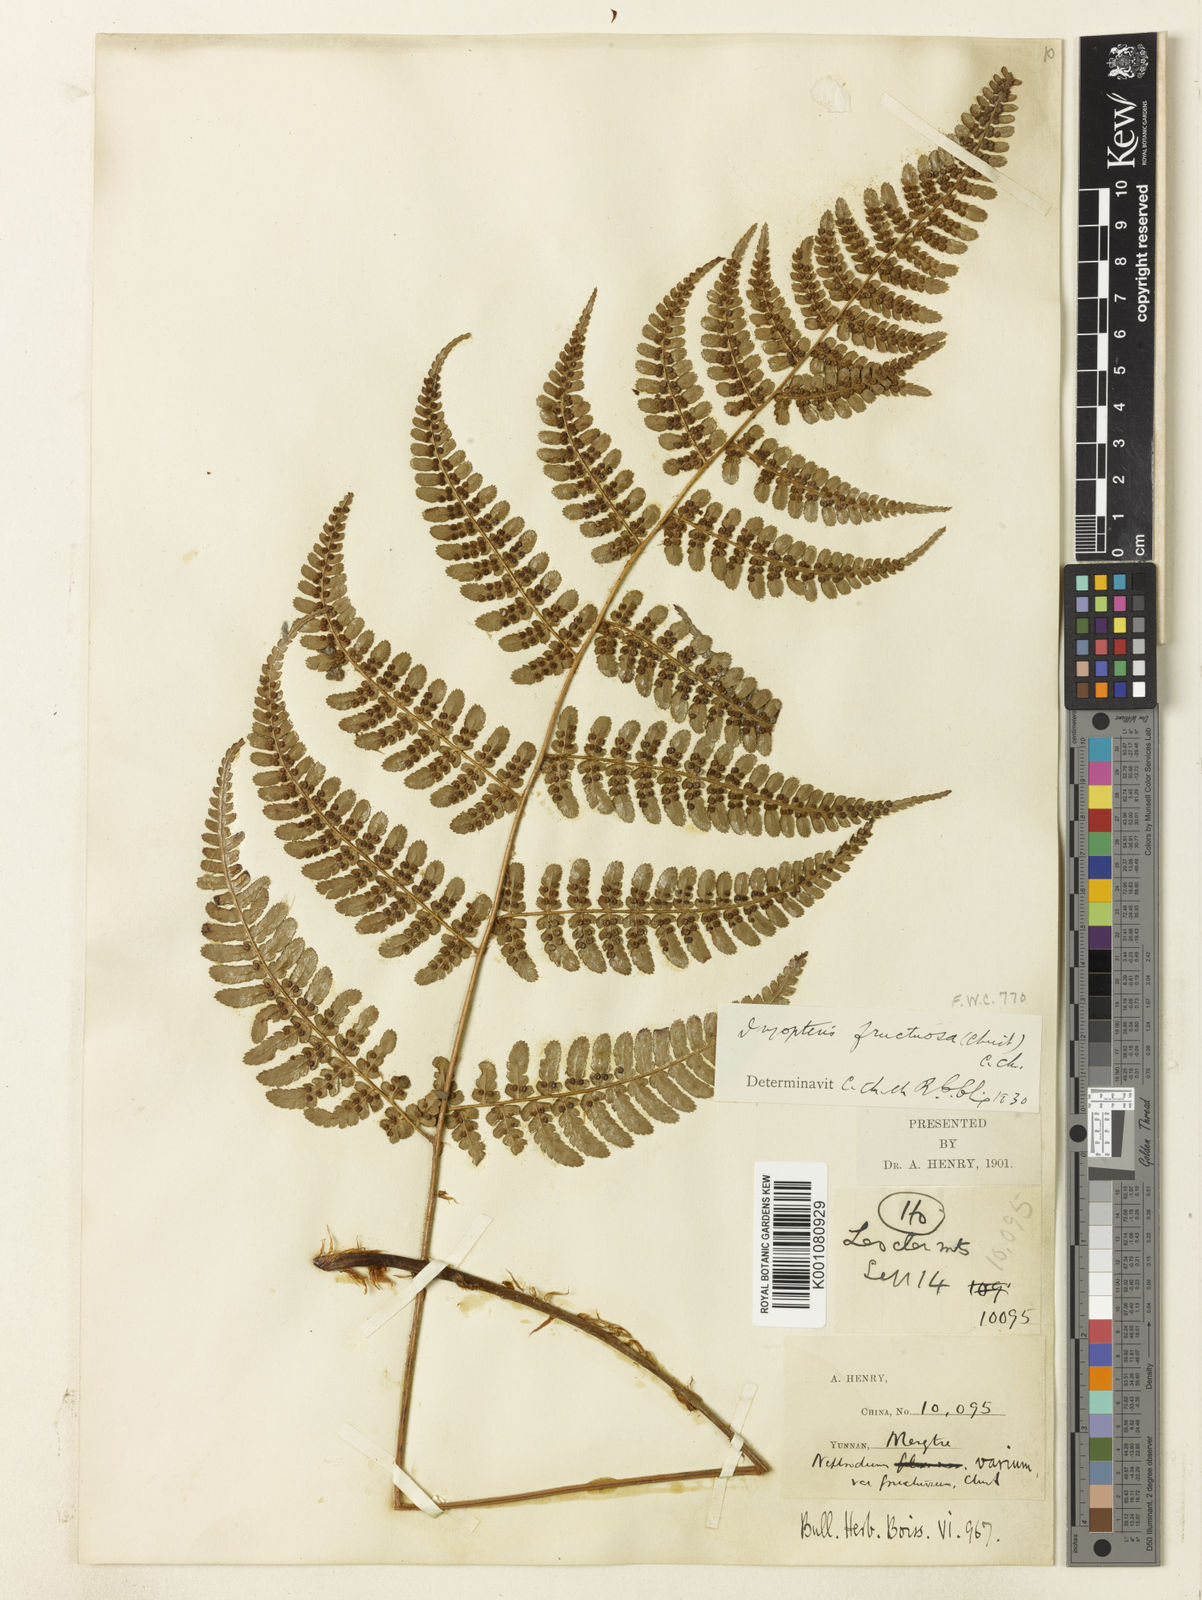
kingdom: Plantae
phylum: Tracheophyta
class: Polypodiopsida
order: Polypodiales
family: Dryopteridaceae
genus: Dryopteris
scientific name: Dryopteris fructuosa
